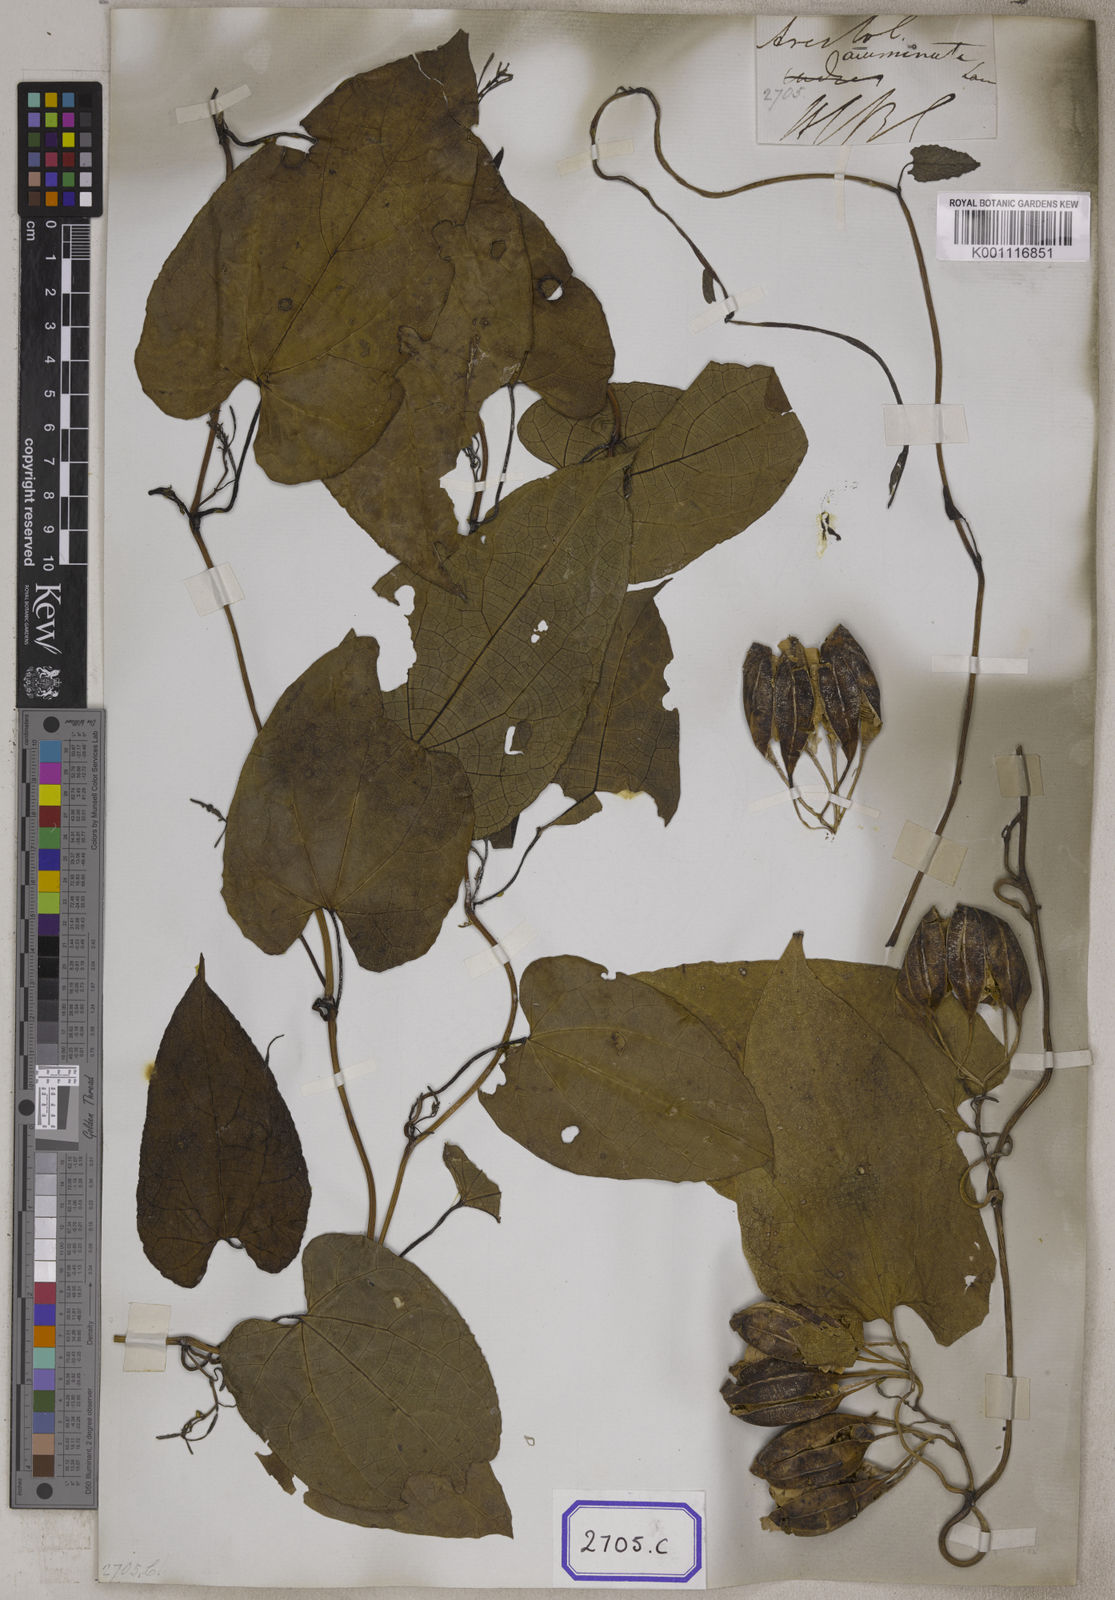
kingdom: Plantae
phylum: Tracheophyta
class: Magnoliopsida
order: Piperales
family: Aristolochiaceae
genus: Aristolochia
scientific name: Aristolochia acuminata
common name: Indian birthwort
